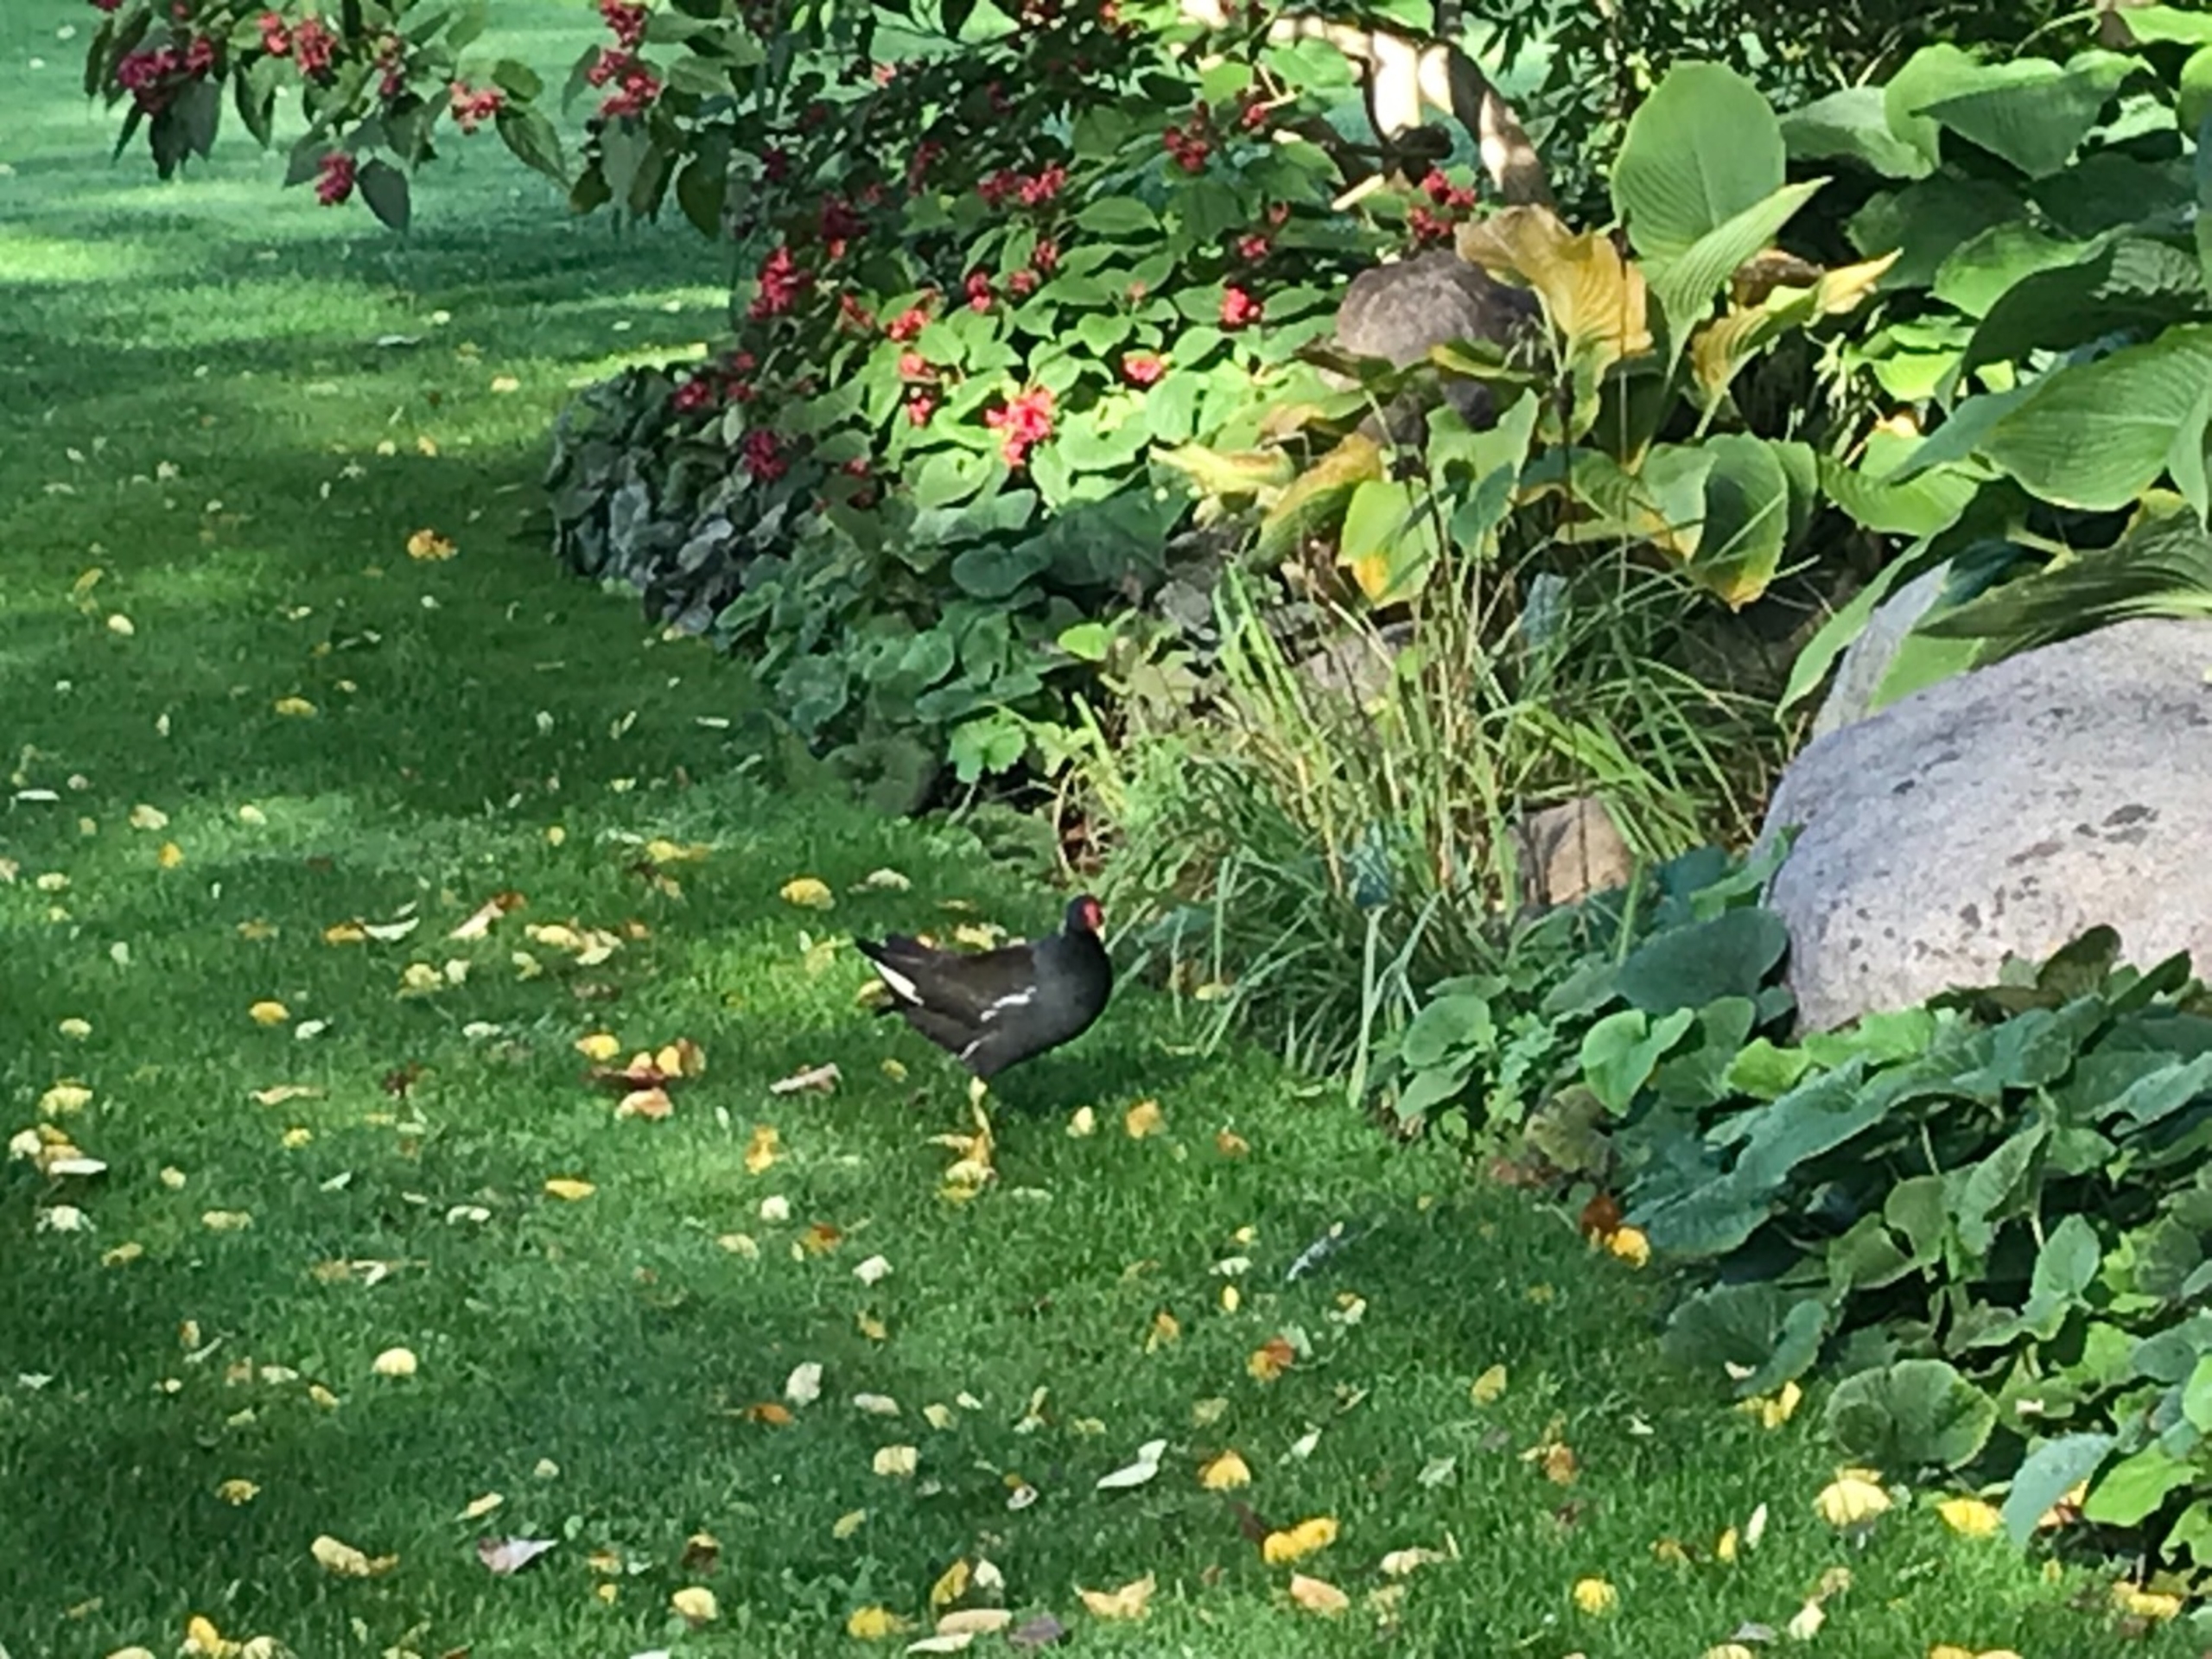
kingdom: Animalia
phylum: Chordata
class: Aves
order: Gruiformes
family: Rallidae
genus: Gallinula
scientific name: Gallinula chloropus
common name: Grønbenet rørhøne
